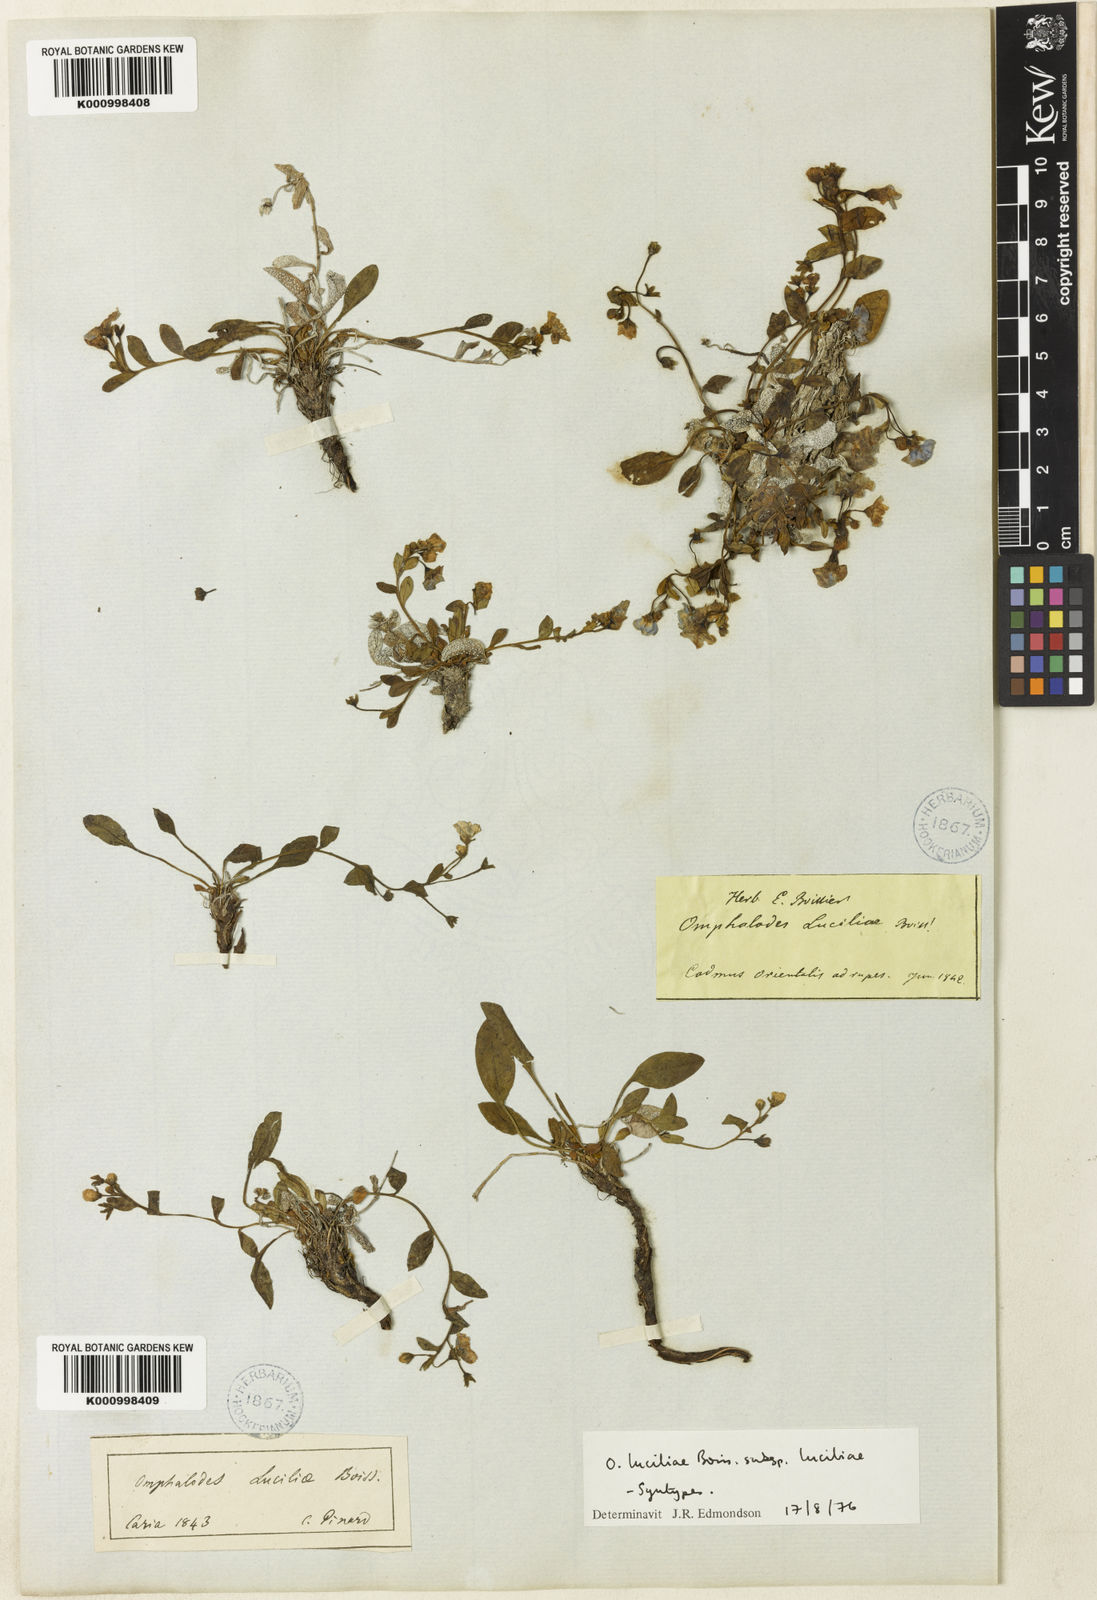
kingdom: Plantae
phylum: Tracheophyta
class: Magnoliopsida
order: Boraginales
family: Boraginaceae
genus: Omphalodes
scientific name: Omphalodes luciliae
